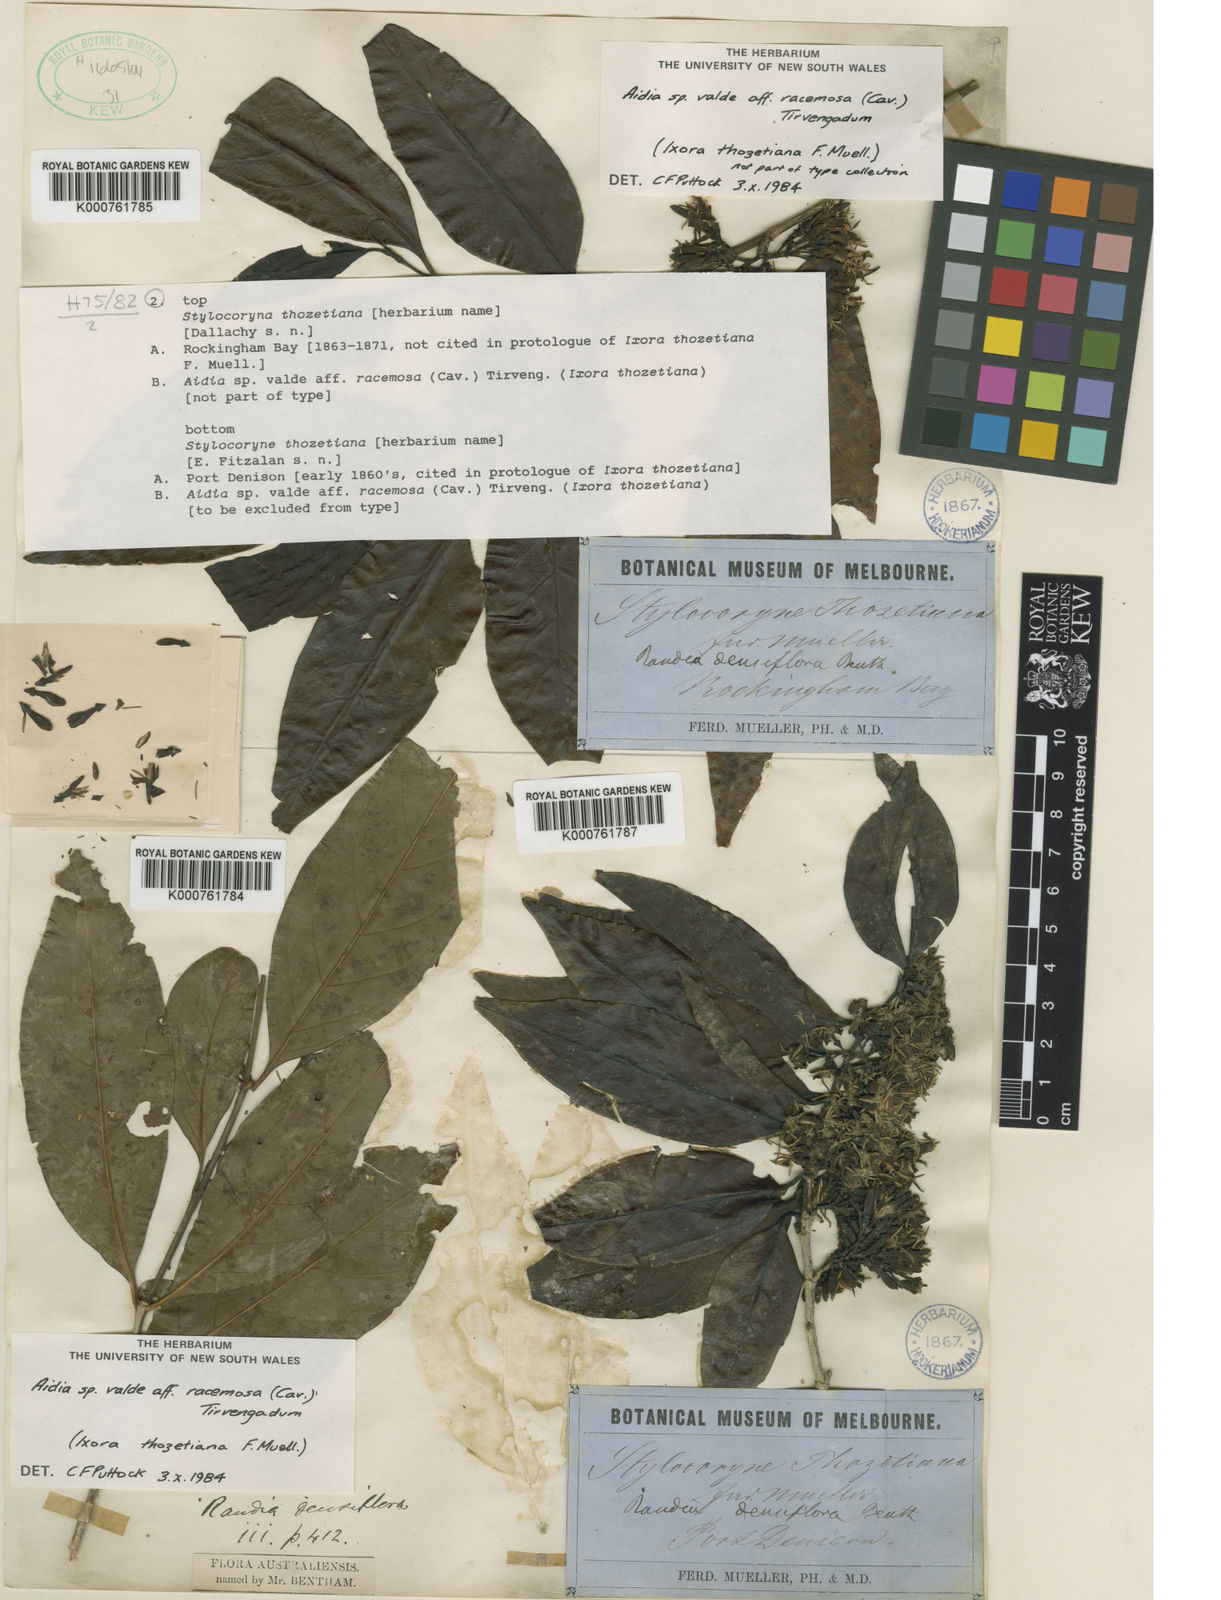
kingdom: Plantae
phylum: Tracheophyta
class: Magnoliopsida
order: Gentianales
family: Rubiaceae
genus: Aidia
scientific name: Aidia racemosa
